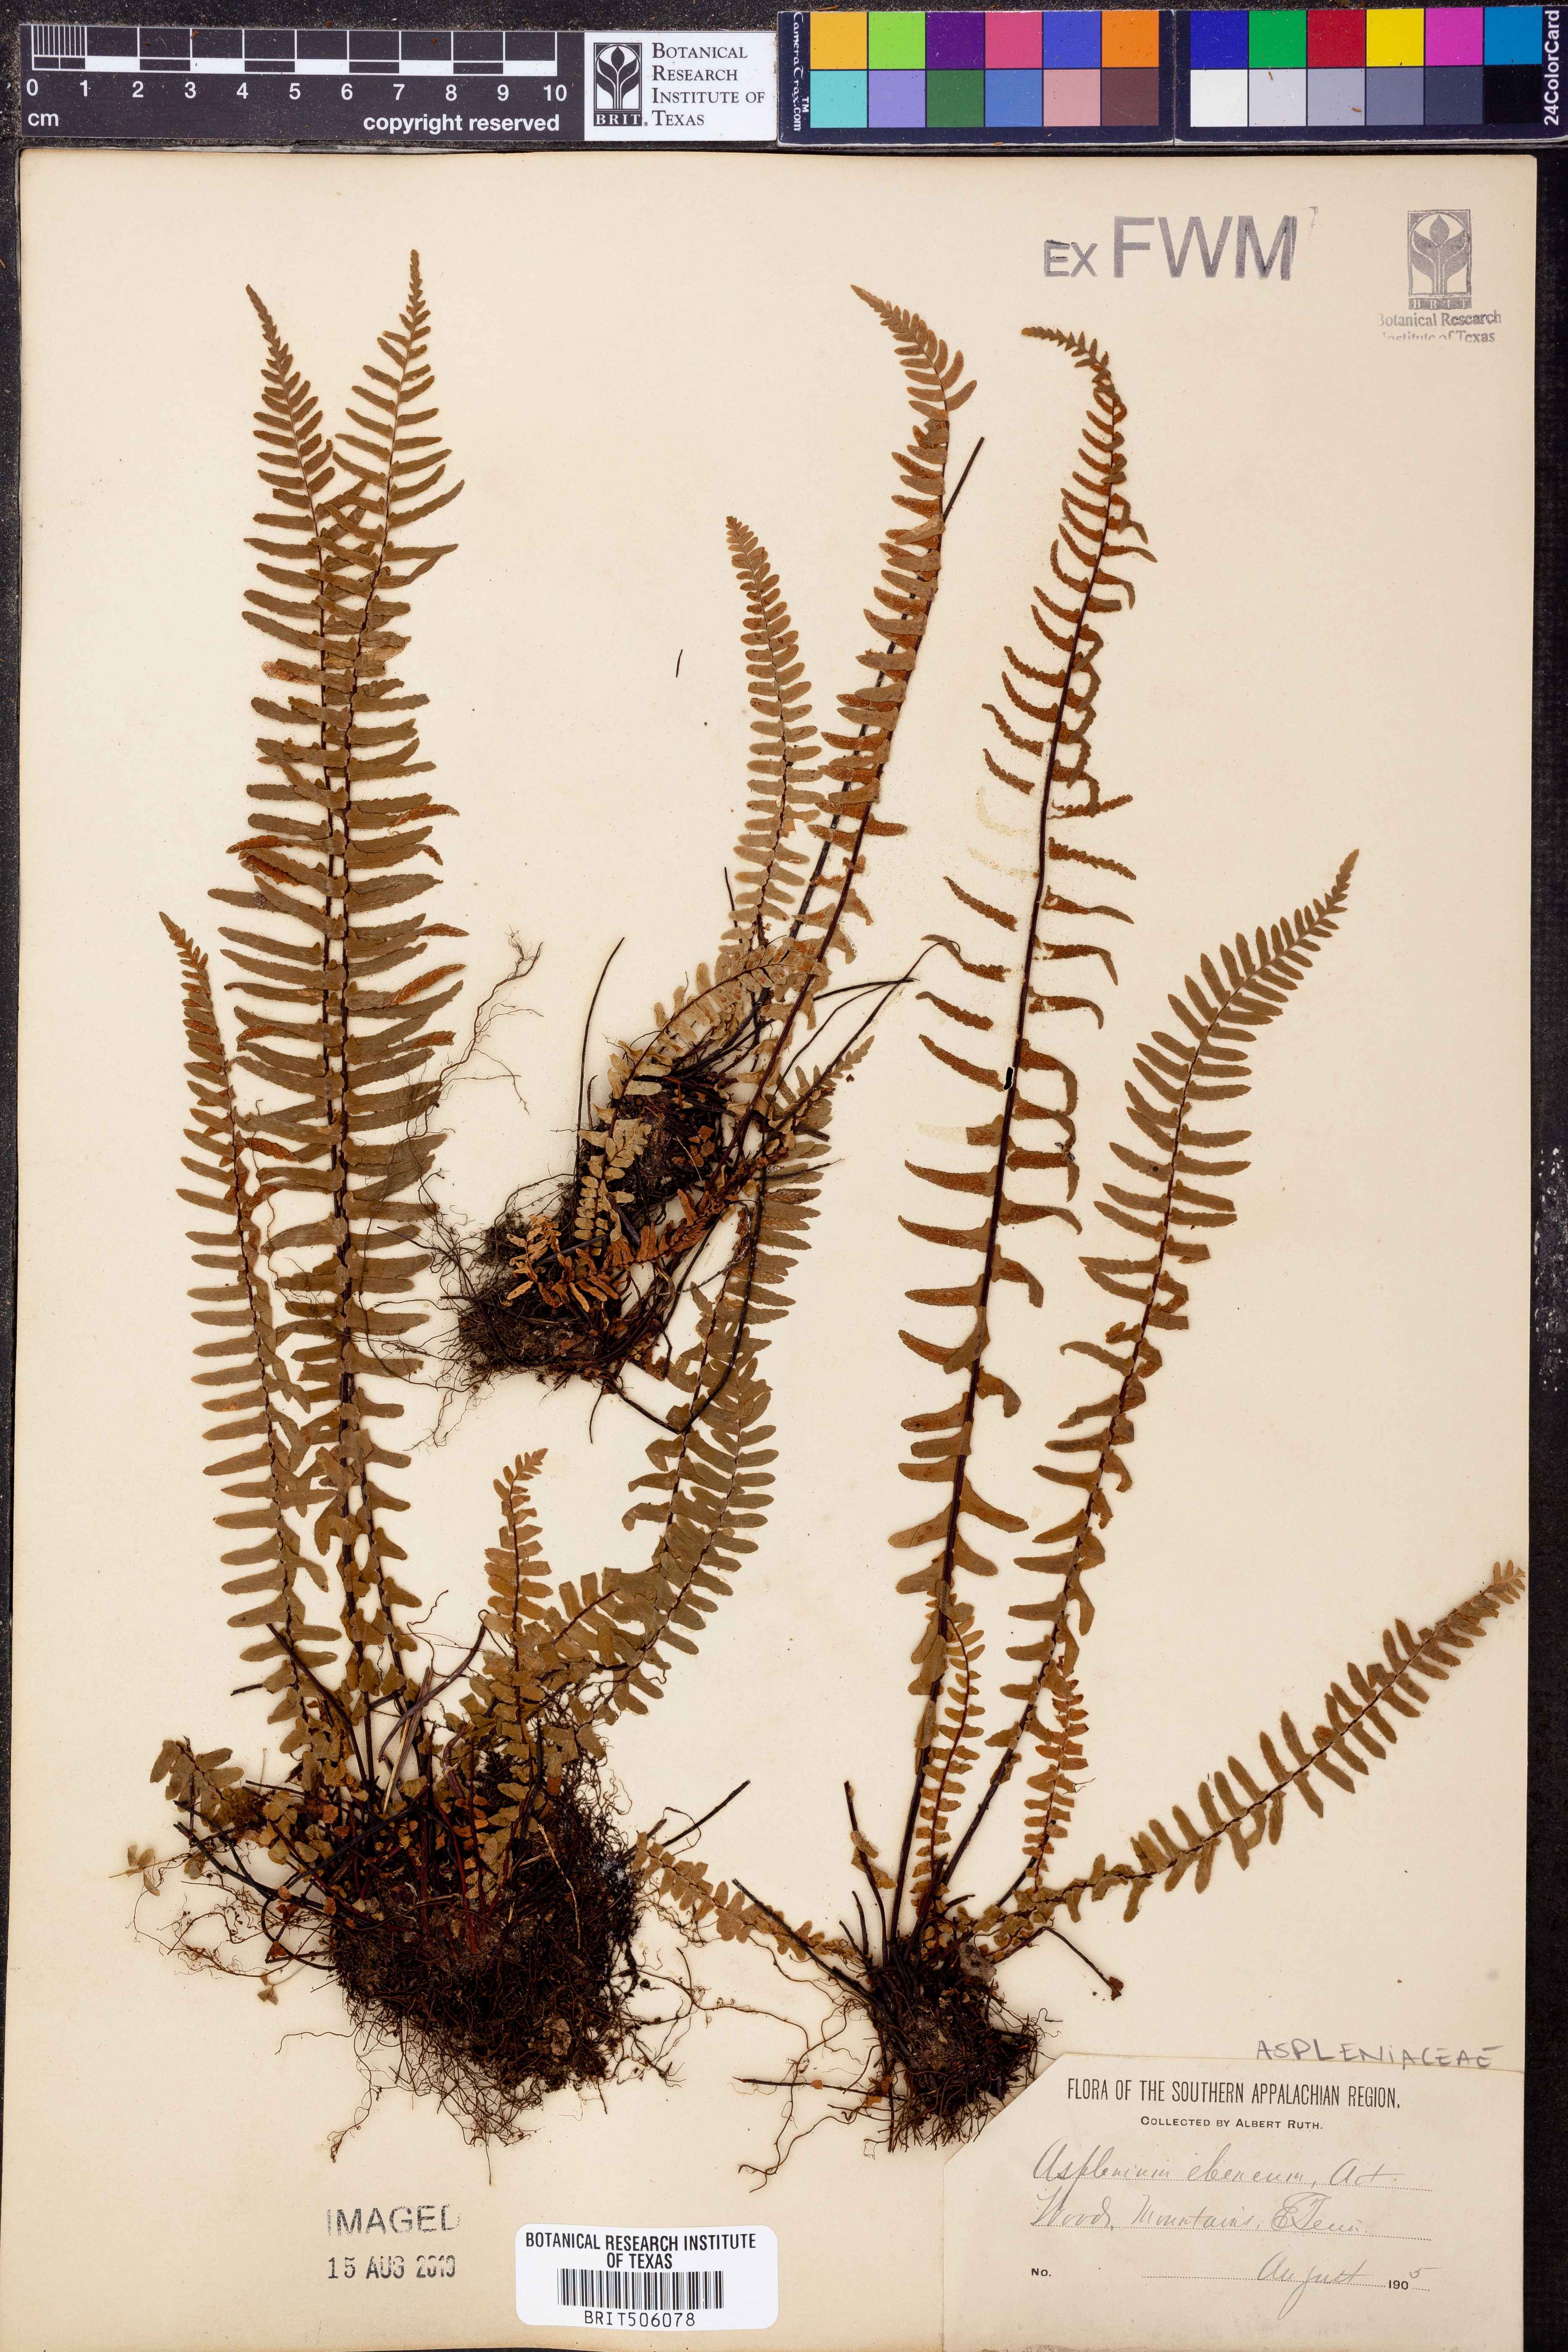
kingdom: Plantae
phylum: Tracheophyta
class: Polypodiopsida
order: Polypodiales
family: Aspleniaceae
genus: Asplenium
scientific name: Asplenium ebeneum
